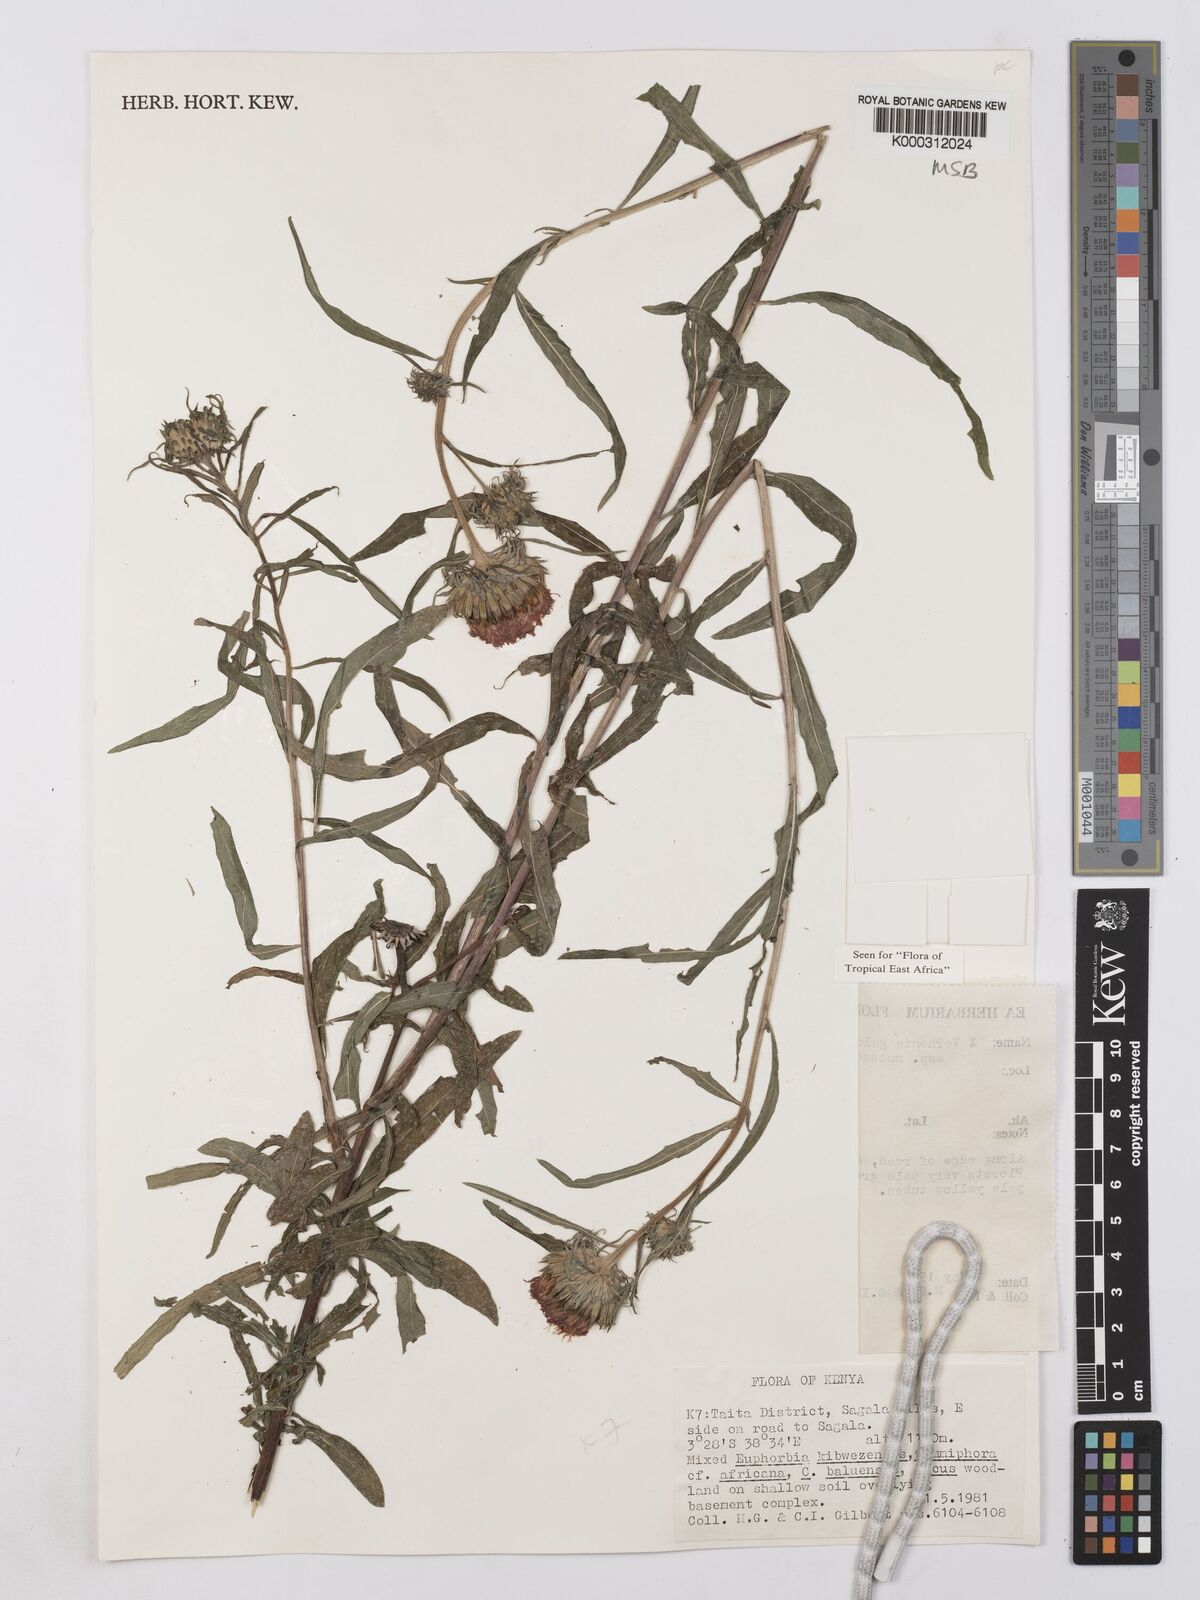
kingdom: Plantae
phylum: Tracheophyta
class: Magnoliopsida
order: Asterales
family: Asteraceae
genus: Vernonia
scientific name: Vernonia galamensis
